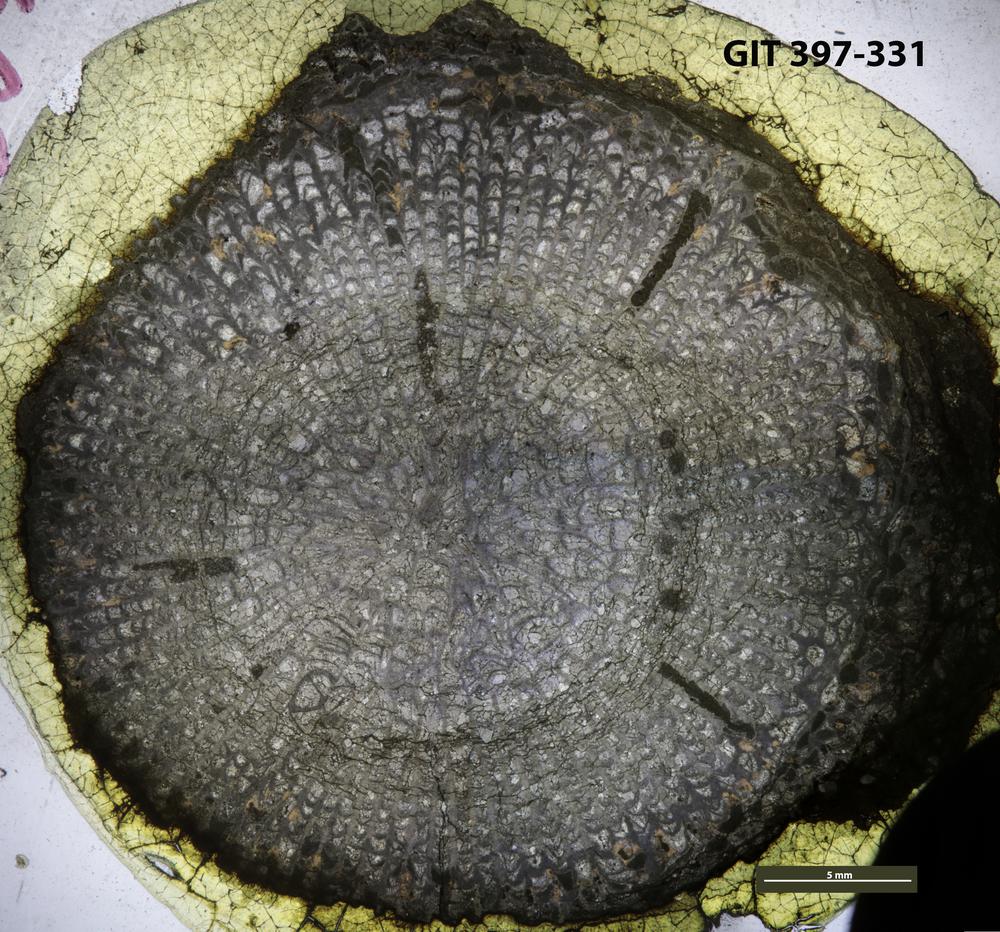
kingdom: Animalia
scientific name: Animalia
